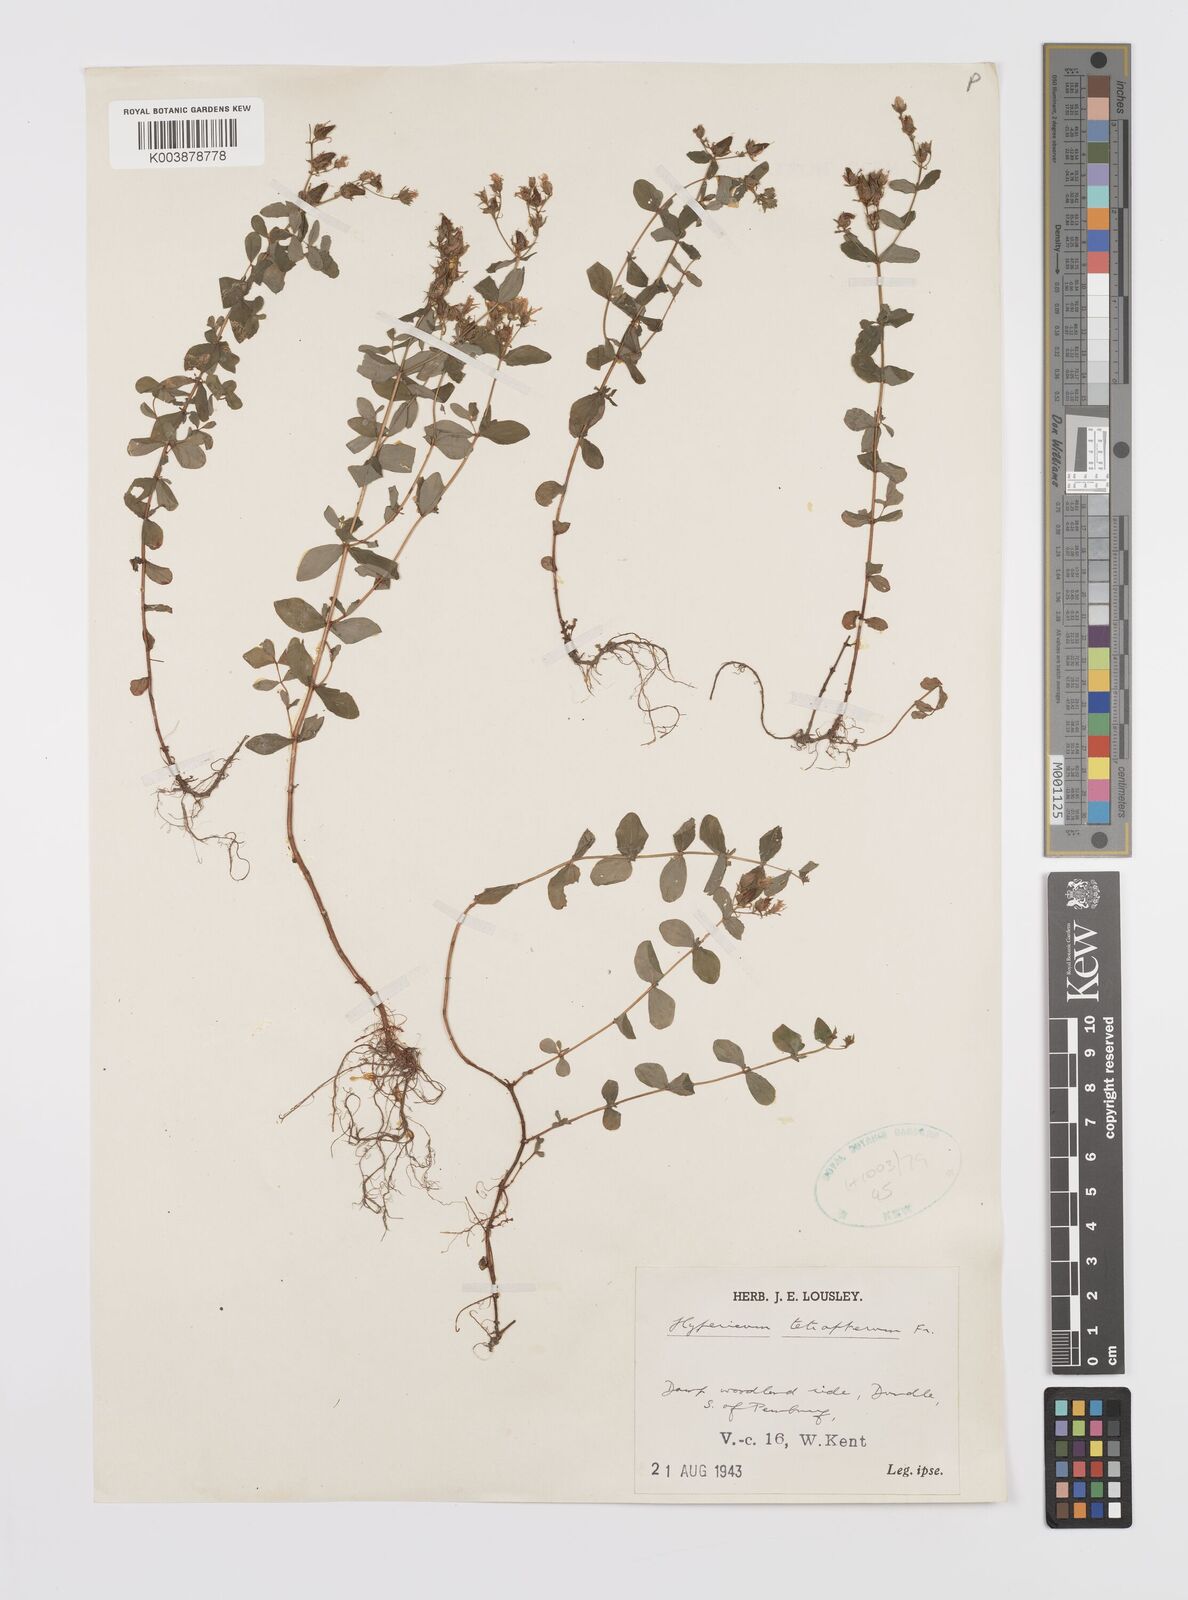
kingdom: Plantae
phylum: Tracheophyta
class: Magnoliopsida
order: Malpighiales
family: Hypericaceae
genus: Hypericum
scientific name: Hypericum tetrapterum
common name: Square-stalked st. john's-wort
